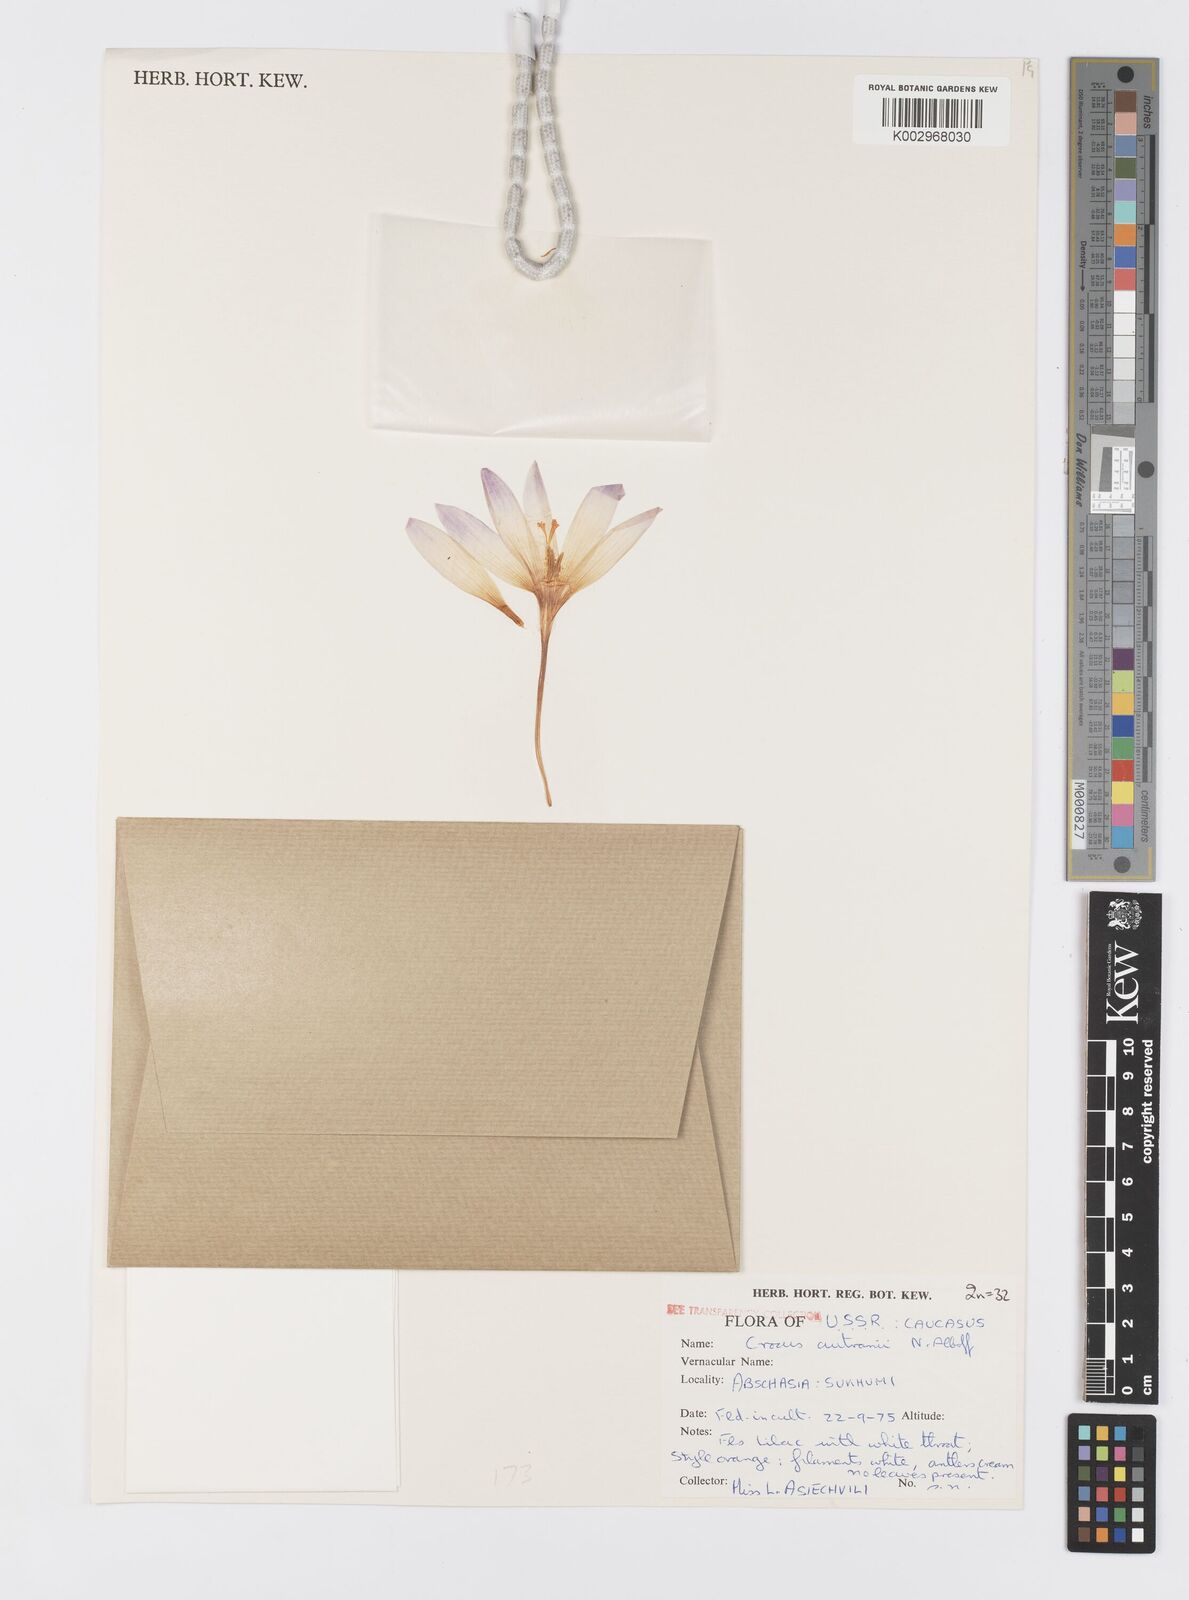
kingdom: Plantae
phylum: Tracheophyta
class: Liliopsida
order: Asparagales
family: Iridaceae
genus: Crocus
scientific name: Crocus autranii
